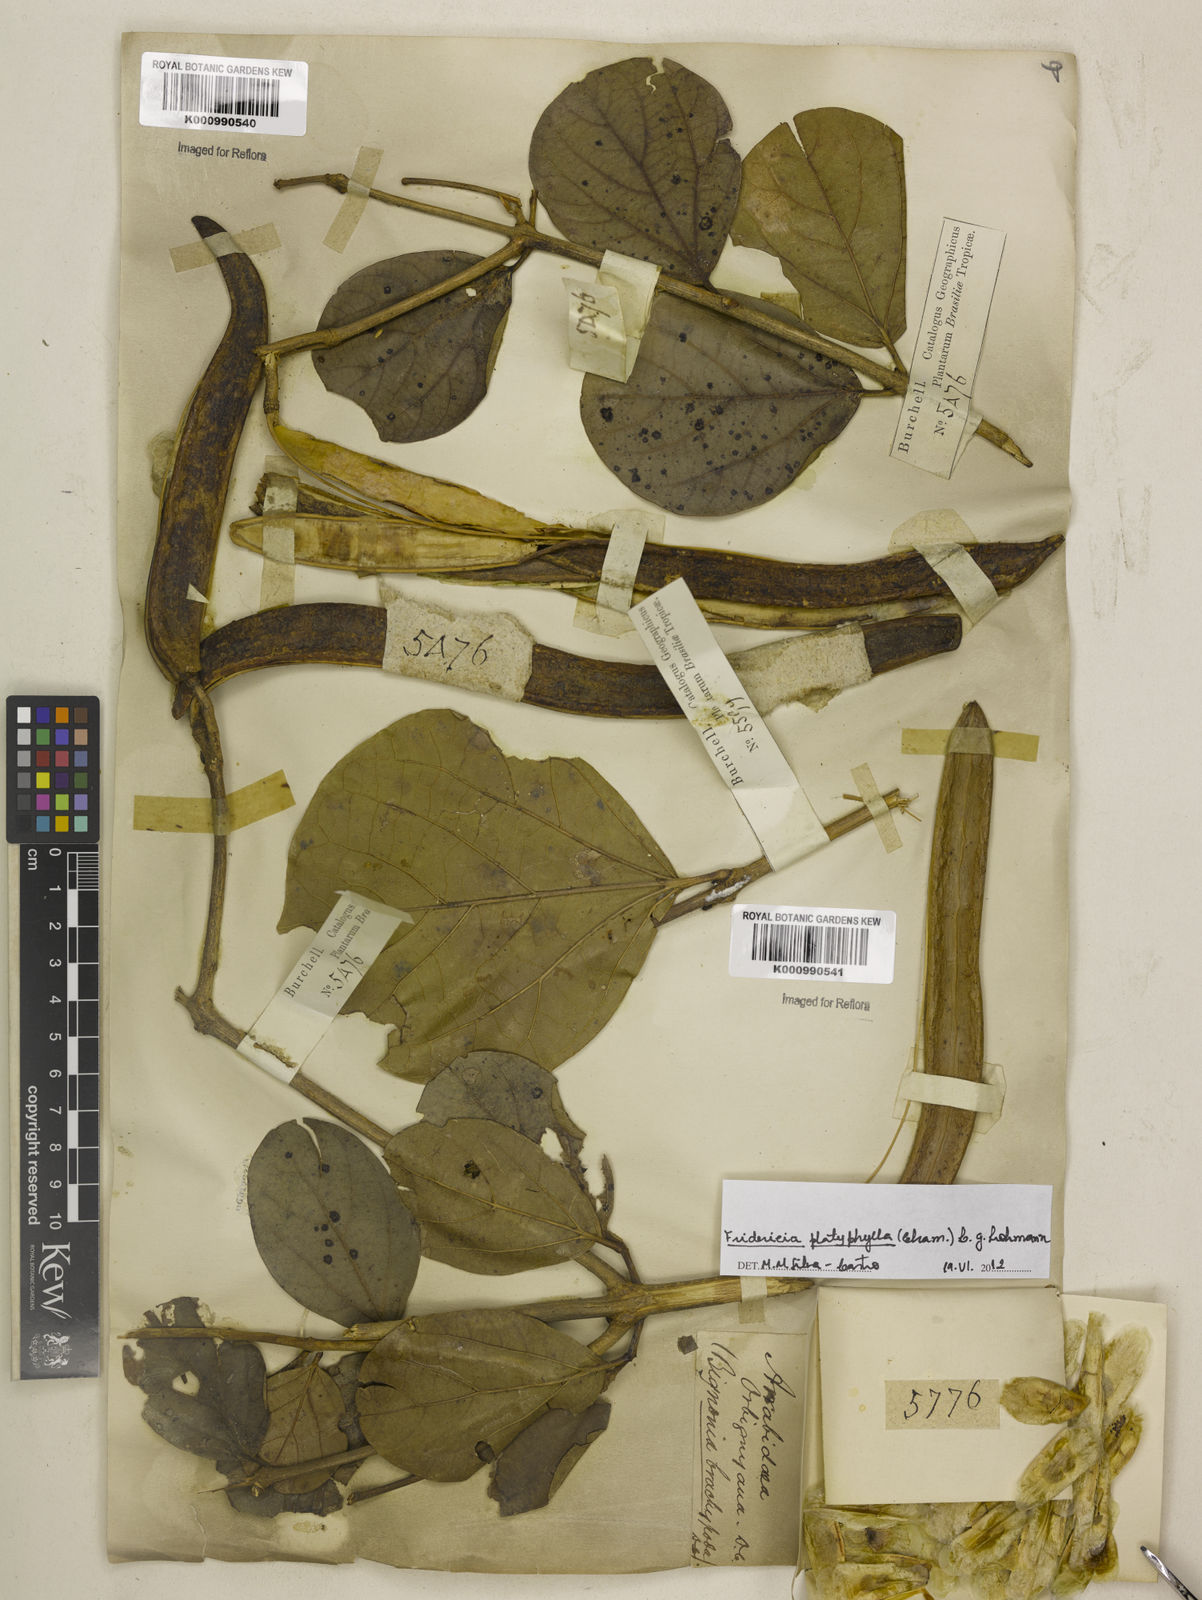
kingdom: Plantae
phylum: Tracheophyta
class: Magnoliopsida
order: Lamiales
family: Bignoniaceae
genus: Fridericia
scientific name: Fridericia platyphylla
